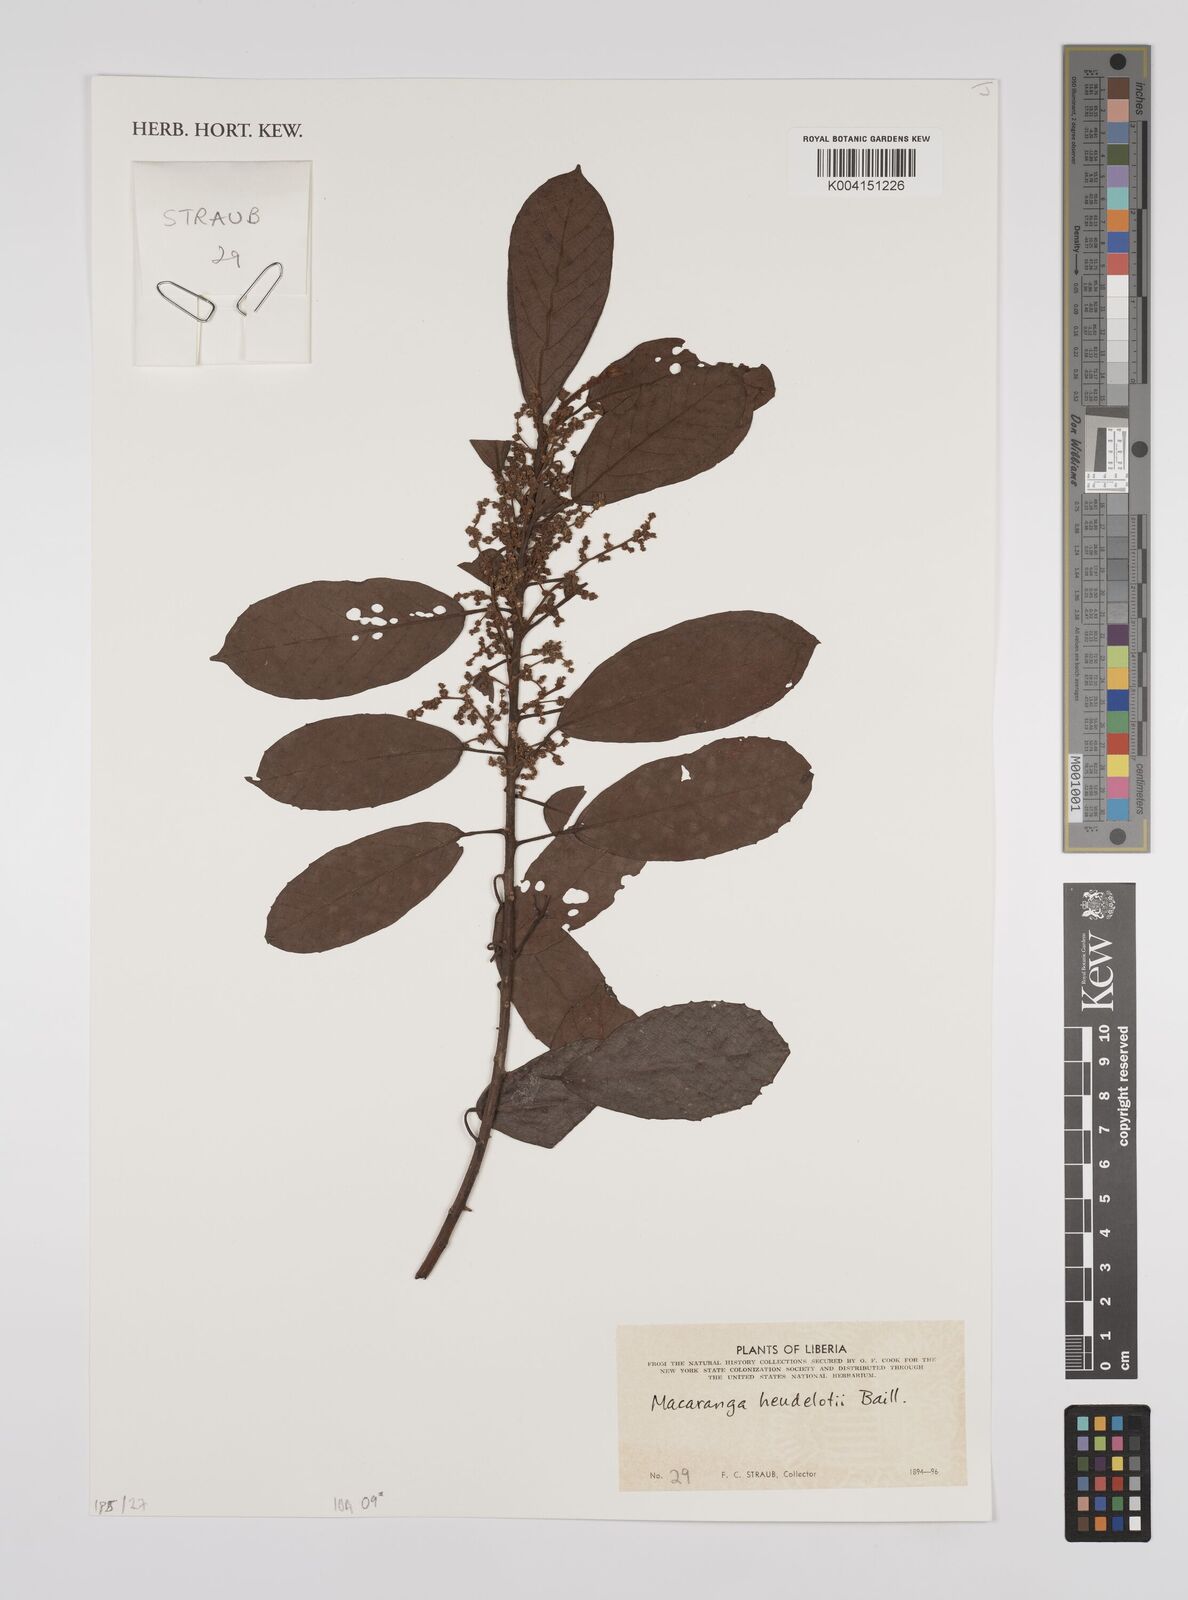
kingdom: Plantae
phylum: Tracheophyta
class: Magnoliopsida
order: Malpighiales
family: Euphorbiaceae
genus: Macaranga
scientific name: Macaranga heudelotii
